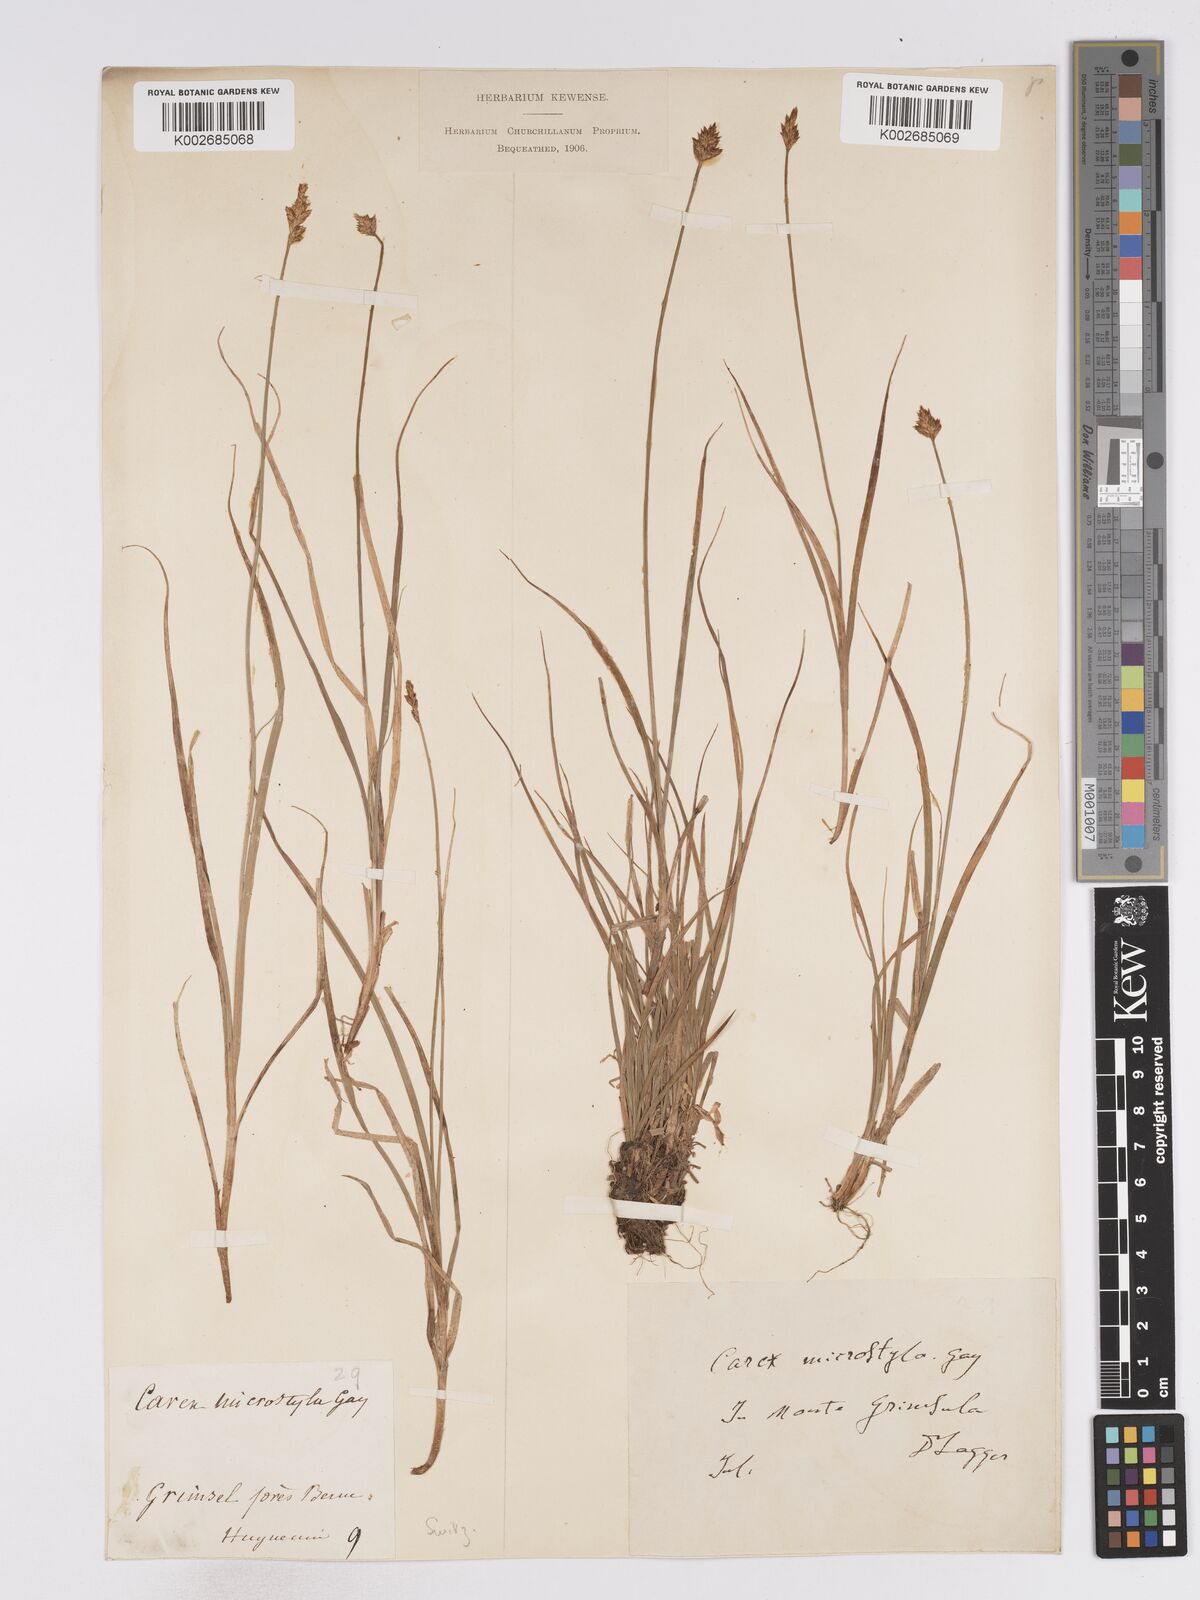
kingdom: Plantae
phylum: Tracheophyta
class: Liliopsida
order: Poales
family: Cyperaceae
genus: Carex
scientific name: Carex microstyla
